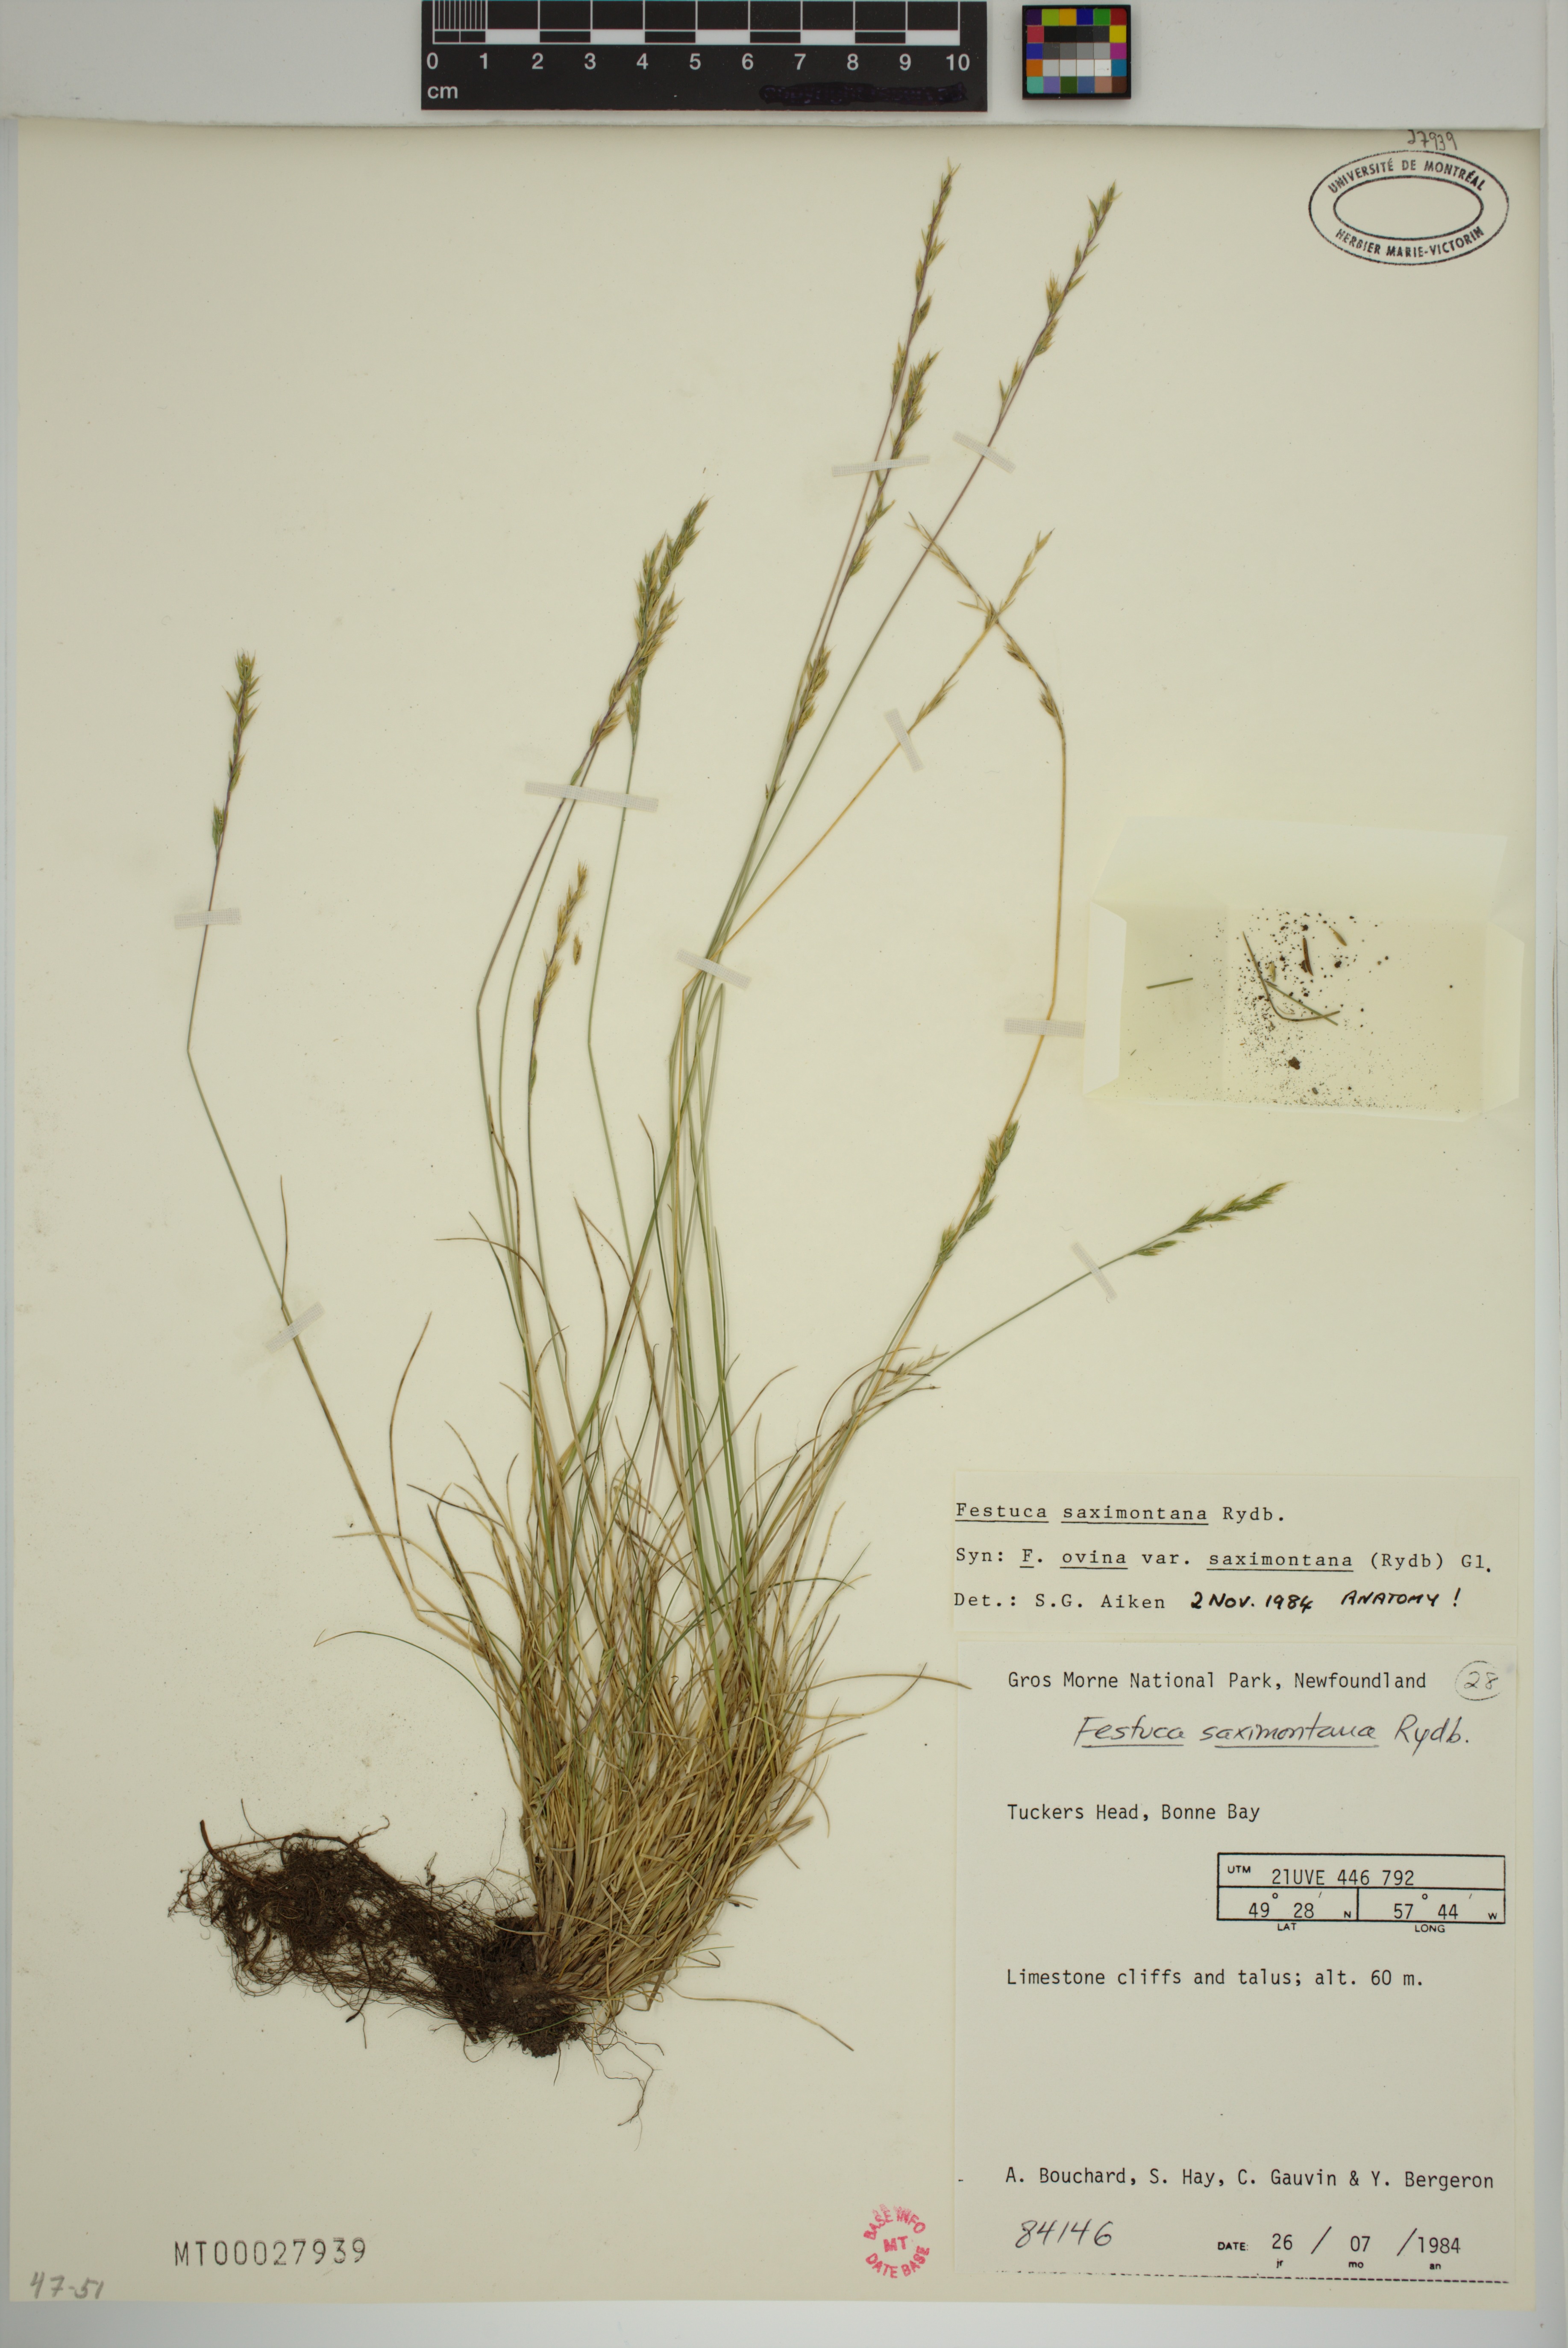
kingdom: Plantae
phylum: Tracheophyta
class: Liliopsida
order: Poales
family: Poaceae
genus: Festuca
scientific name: Festuca saximontana
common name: Mountain fescue
